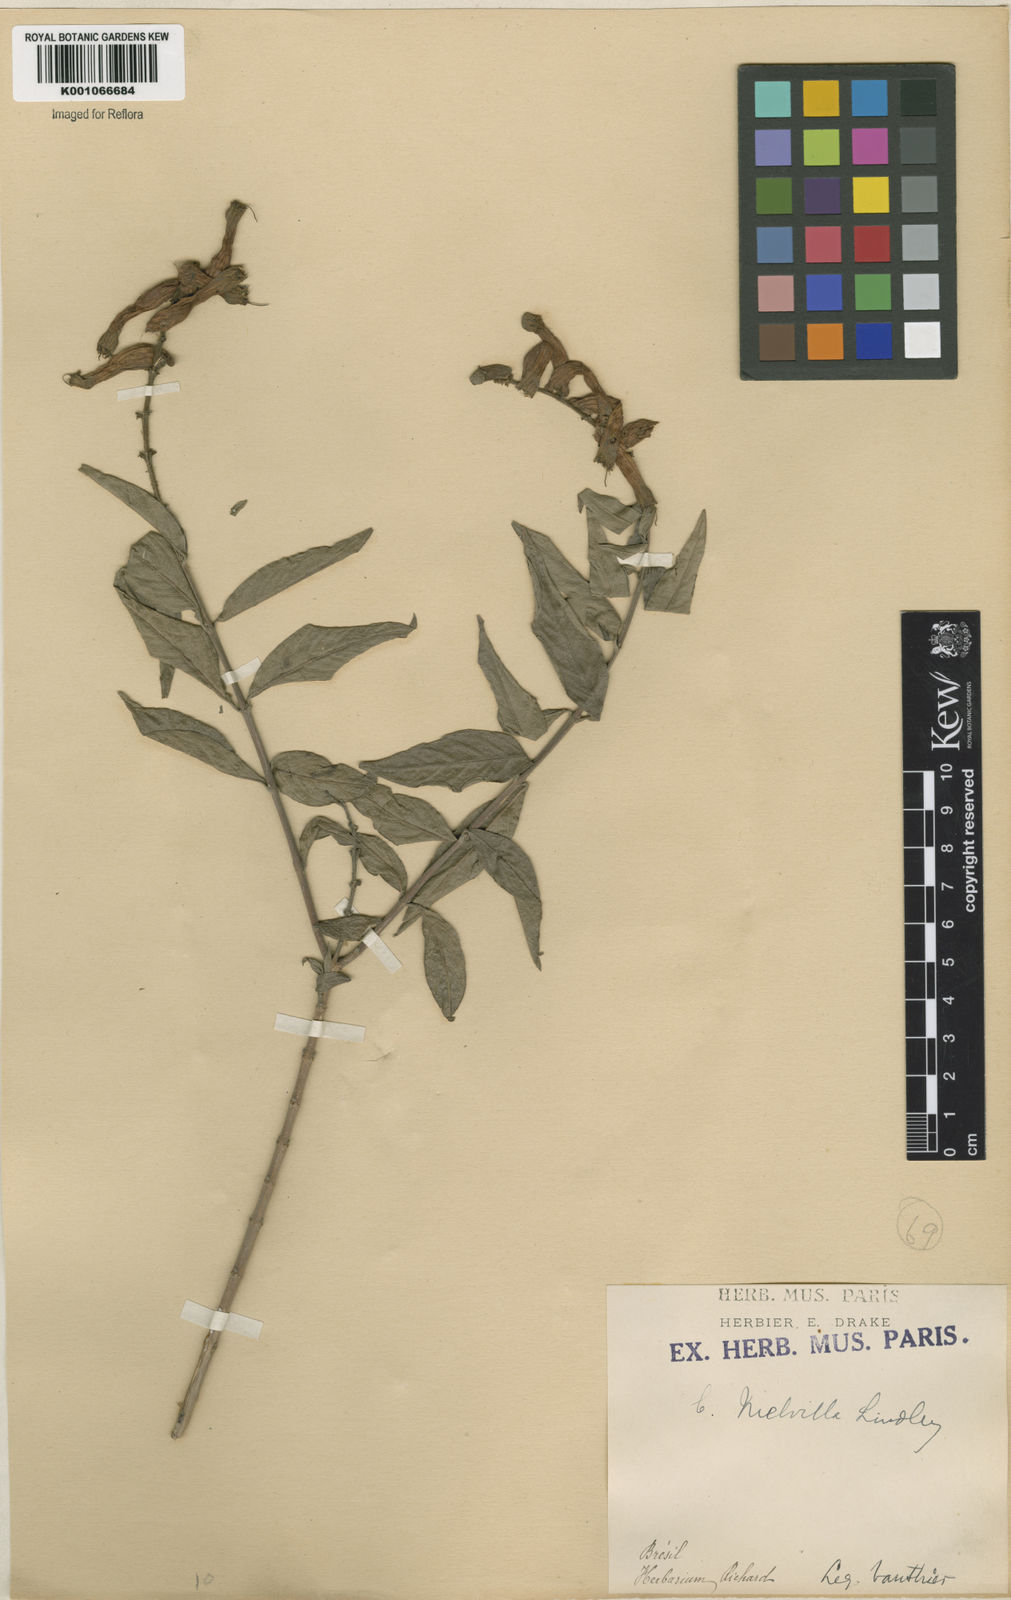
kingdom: Plantae
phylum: Tracheophyta
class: Magnoliopsida
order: Myrtales
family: Lythraceae
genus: Cuphea
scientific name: Cuphea melvilla
